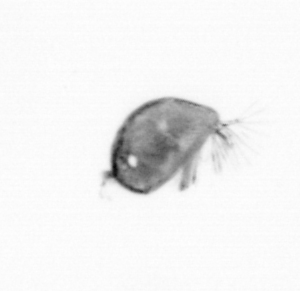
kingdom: Animalia
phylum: Arthropoda
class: Maxillopoda
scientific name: Maxillopoda
